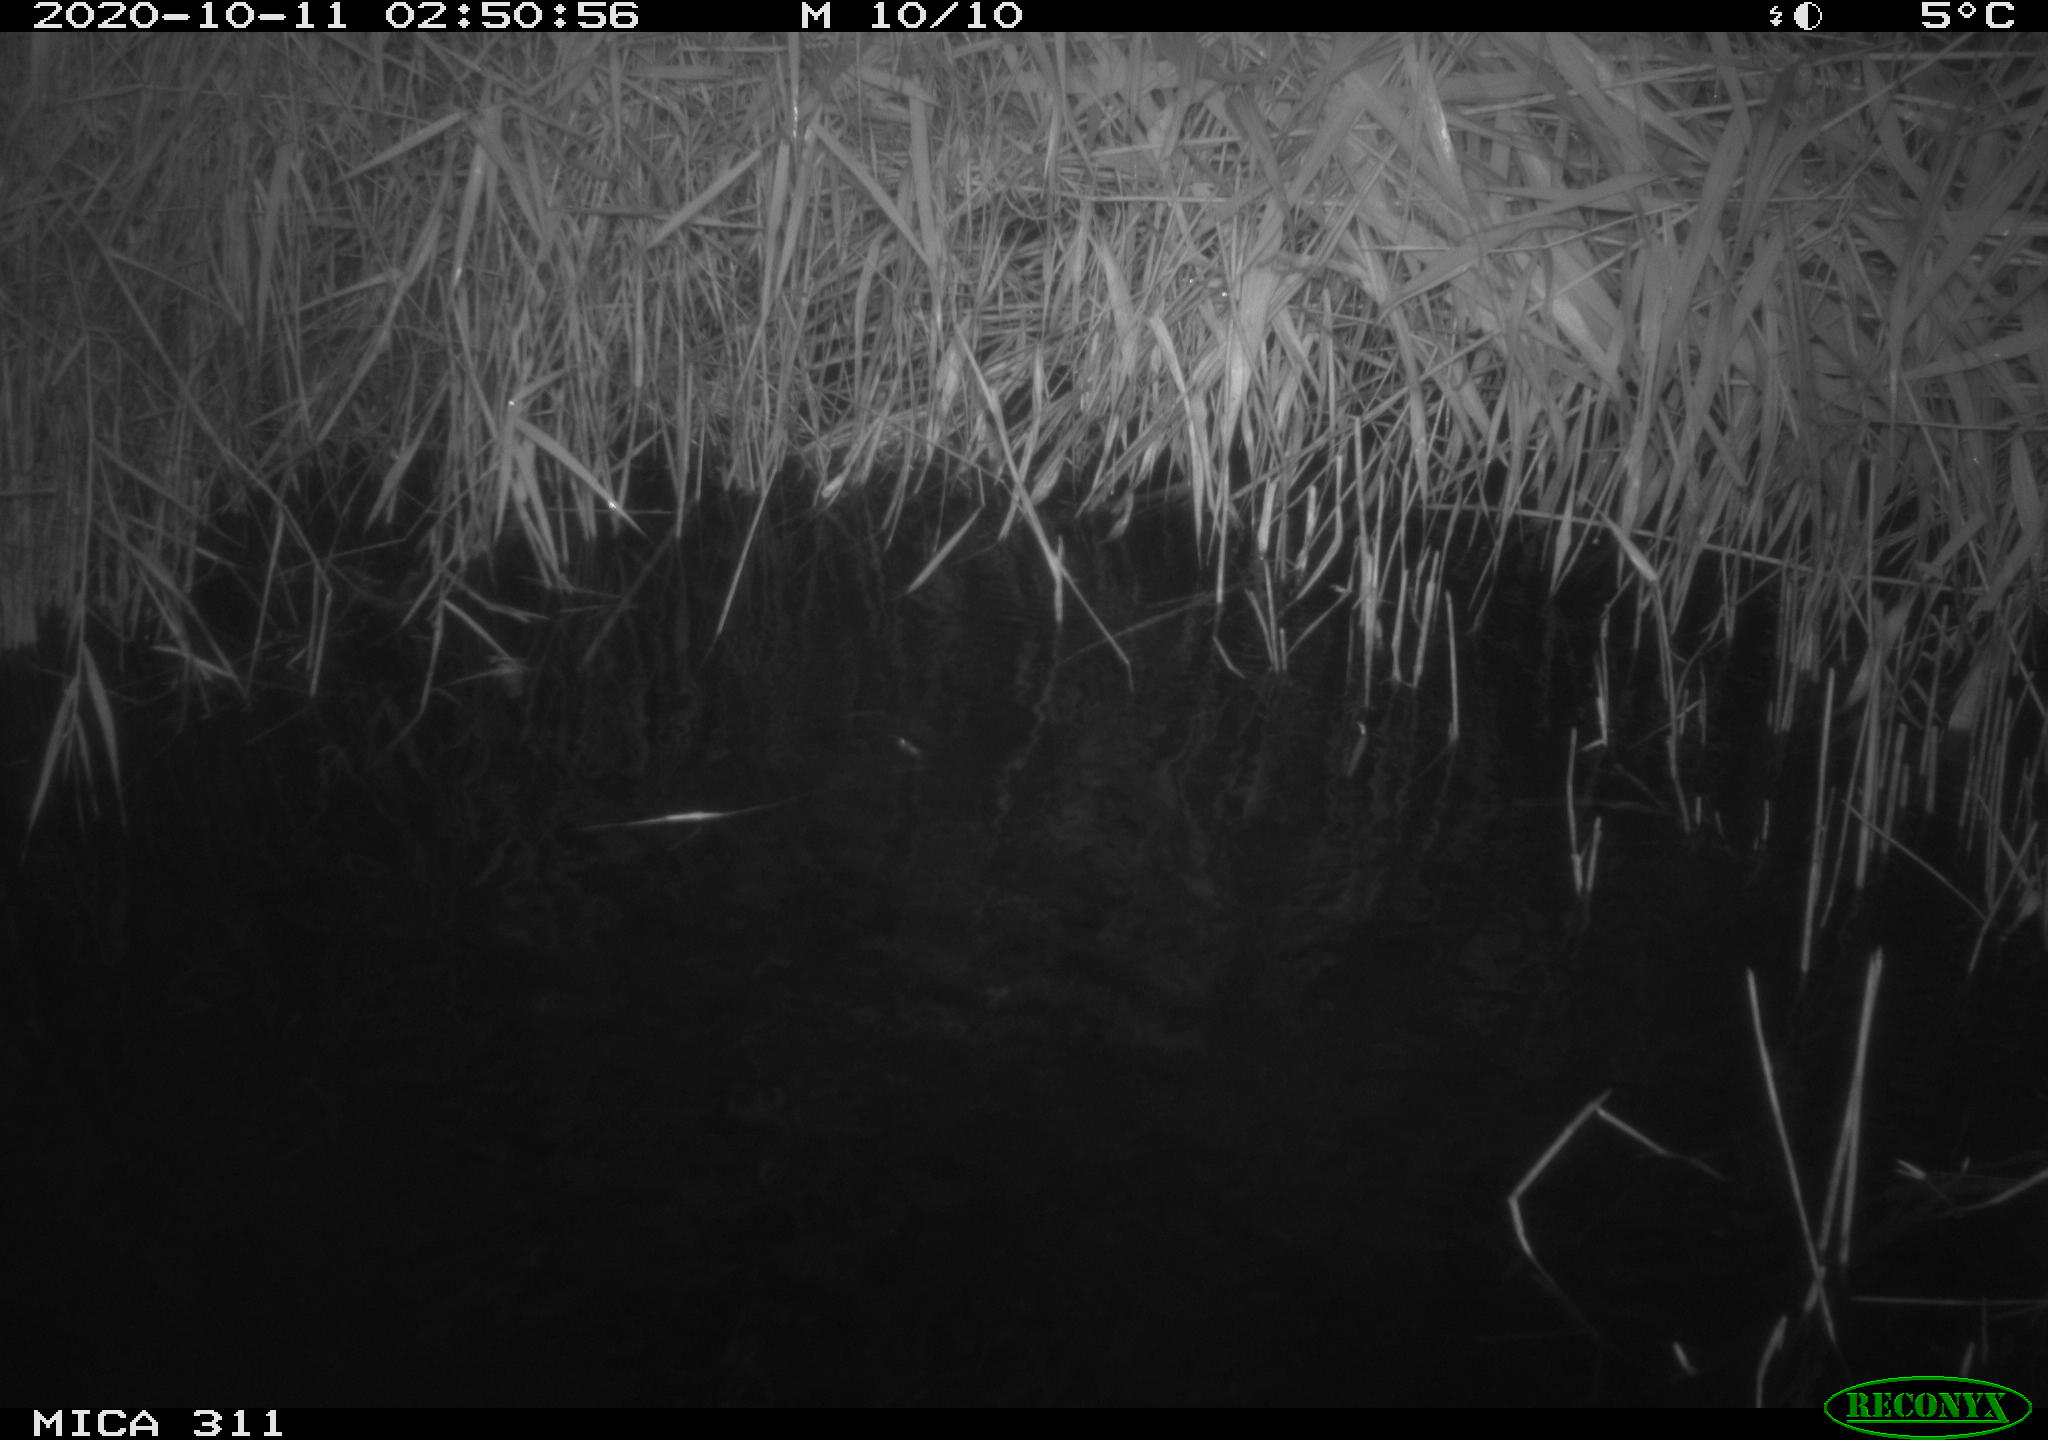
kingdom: Animalia
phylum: Chordata
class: Mammalia
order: Rodentia
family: Muridae
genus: Rattus
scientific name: Rattus norvegicus
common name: Brown rat
